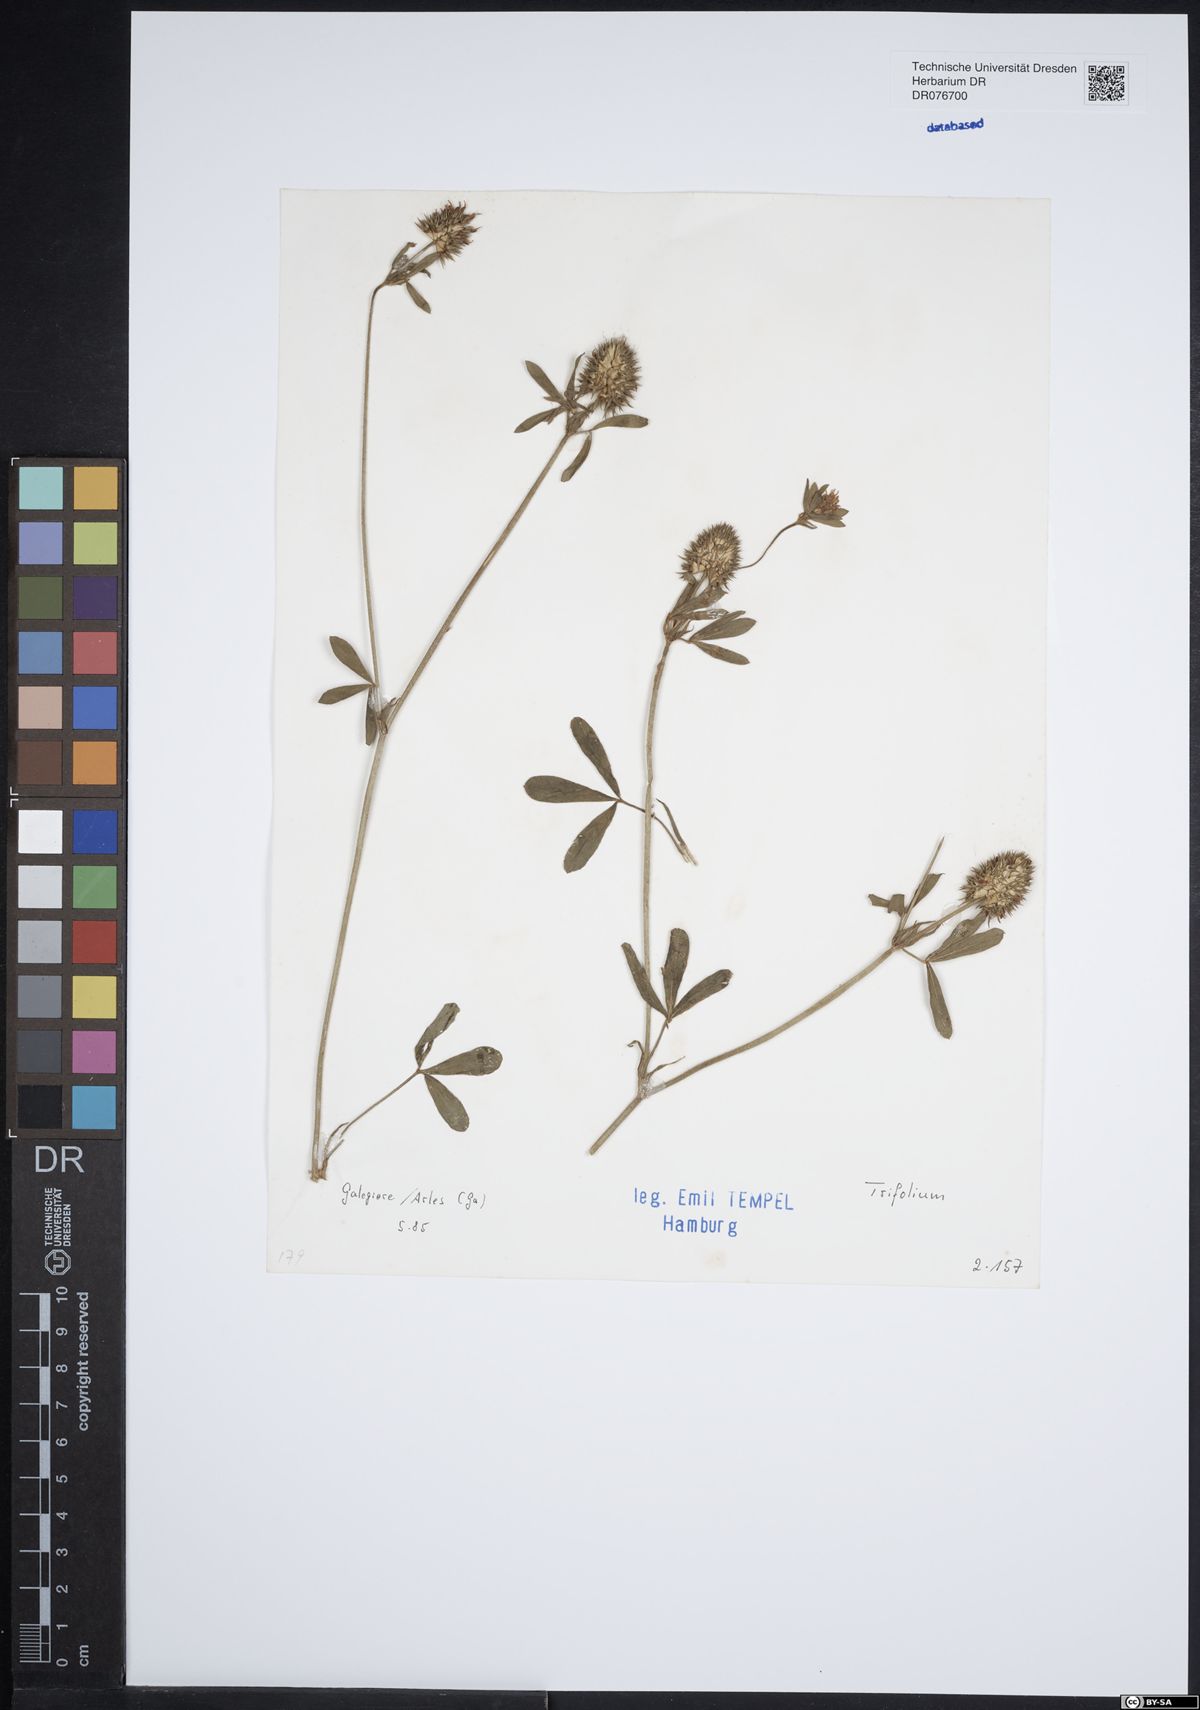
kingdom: Plantae
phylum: Tracheophyta
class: Magnoliopsida
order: Fabales
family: Fabaceae
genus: Trifolium
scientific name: Trifolium
